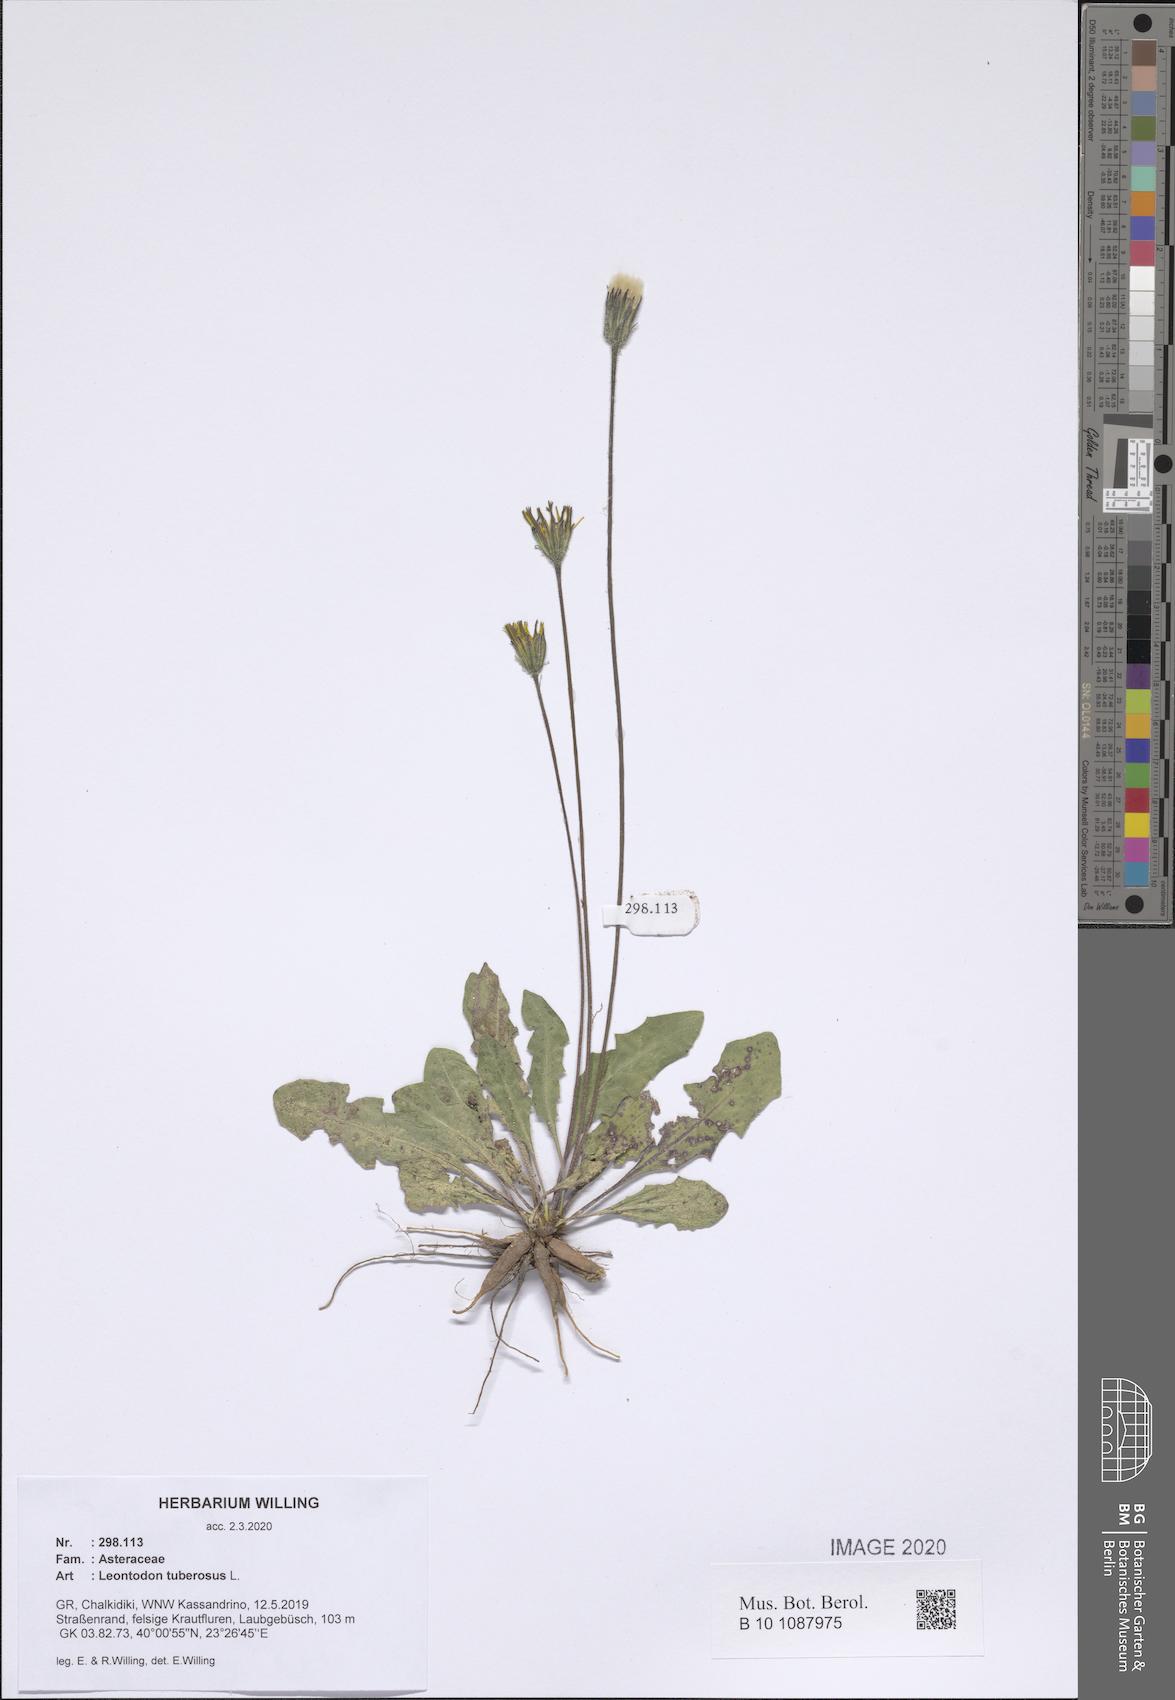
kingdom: Plantae
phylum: Tracheophyta
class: Magnoliopsida
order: Asterales
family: Asteraceae
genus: Thrincia
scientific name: Thrincia tuberosa
